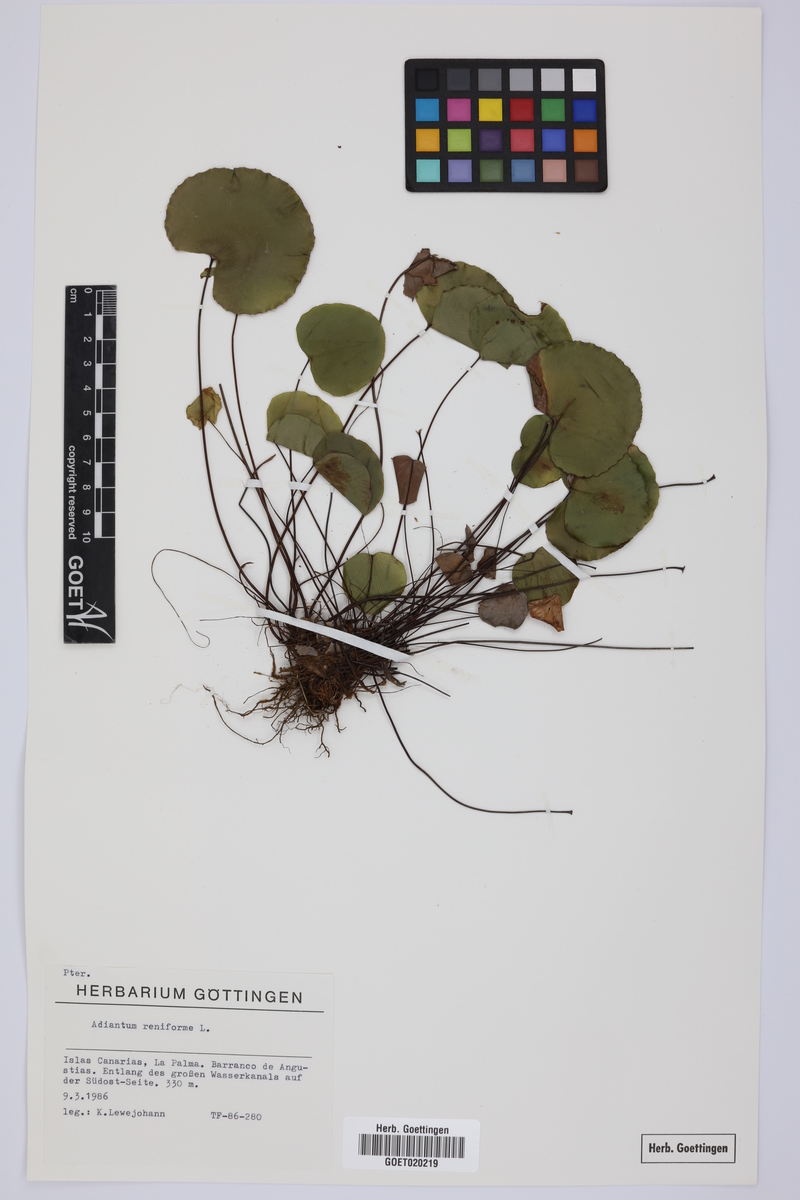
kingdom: Plantae
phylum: Tracheophyta
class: Polypodiopsida
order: Polypodiales
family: Pteridaceae
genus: Adiantum
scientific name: Adiantum reniforme
